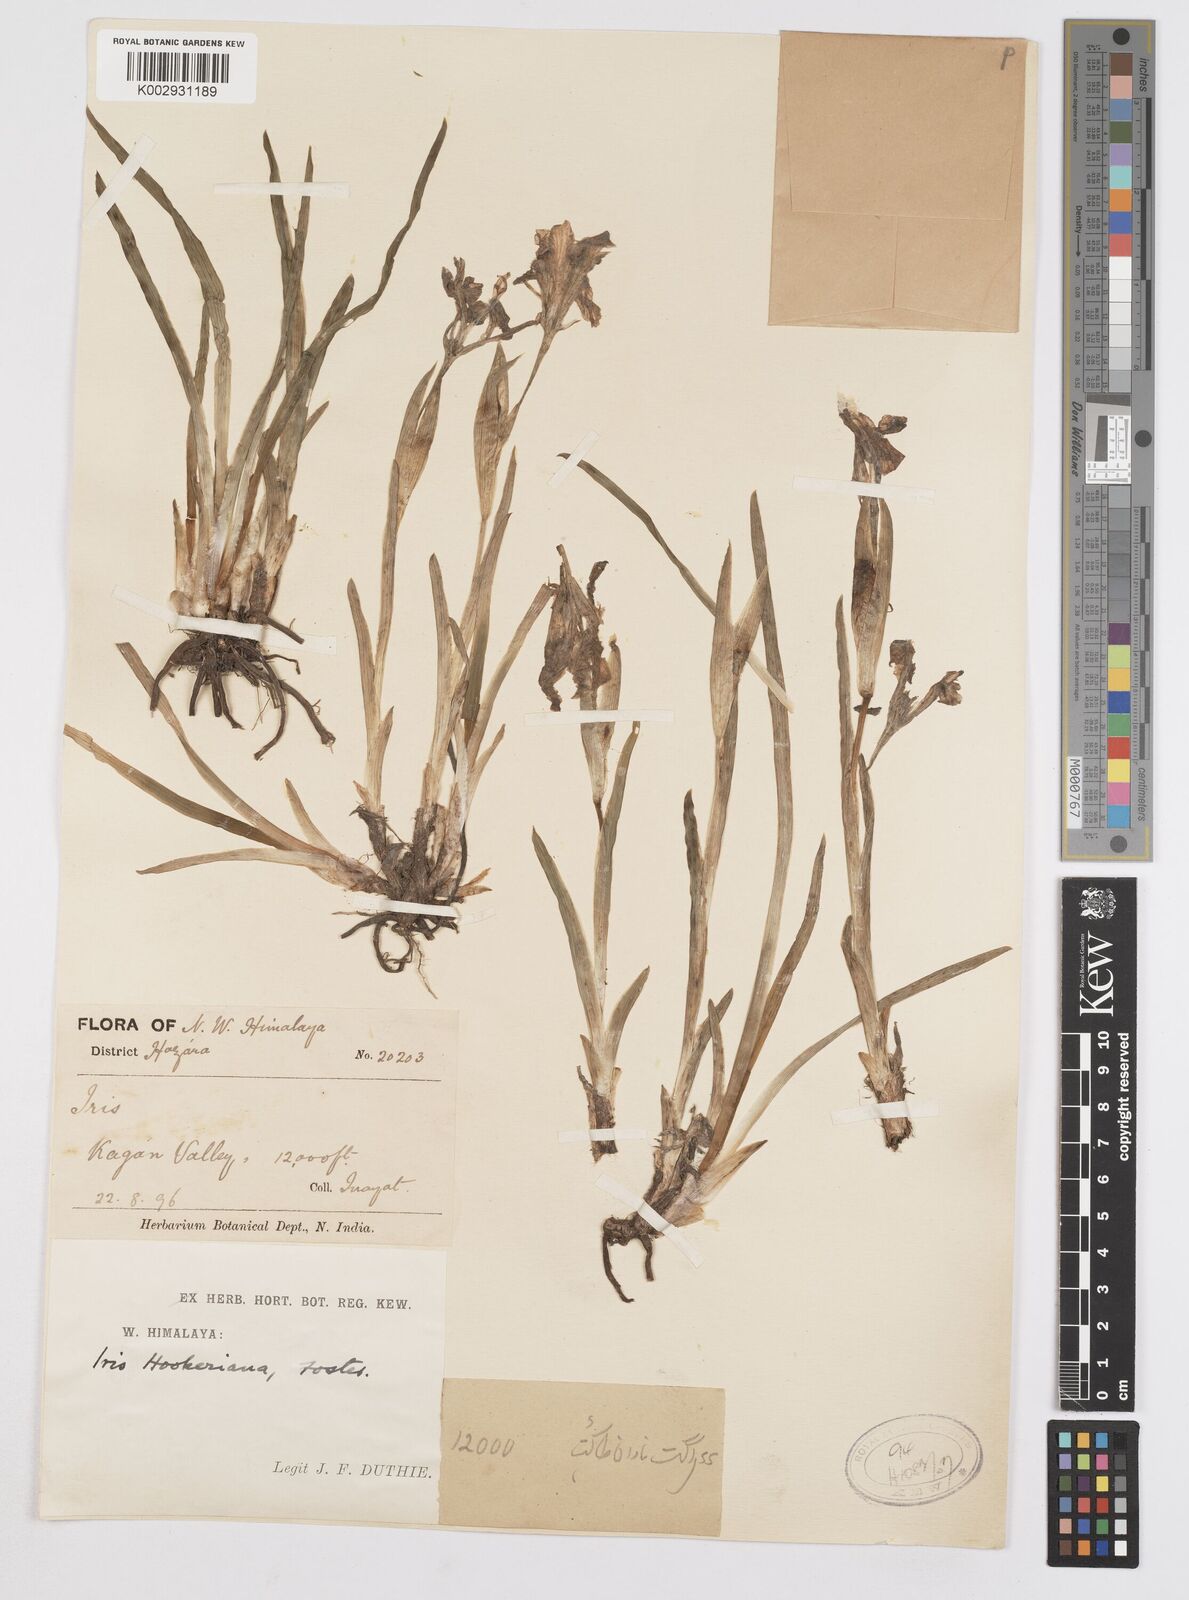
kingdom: Plantae
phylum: Tracheophyta
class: Liliopsida
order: Asparagales
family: Iridaceae
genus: Iris
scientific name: Iris hookeriana
